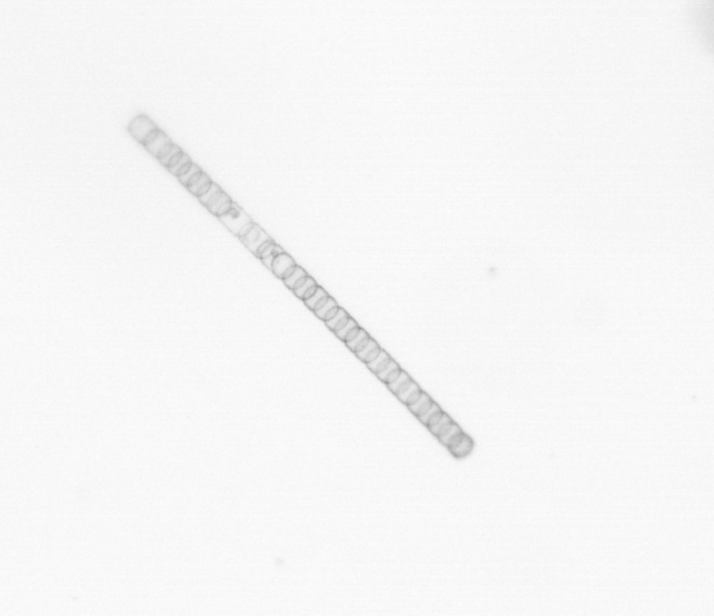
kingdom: Chromista
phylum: Ochrophyta
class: Bacillariophyceae
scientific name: Bacillariophyceae
